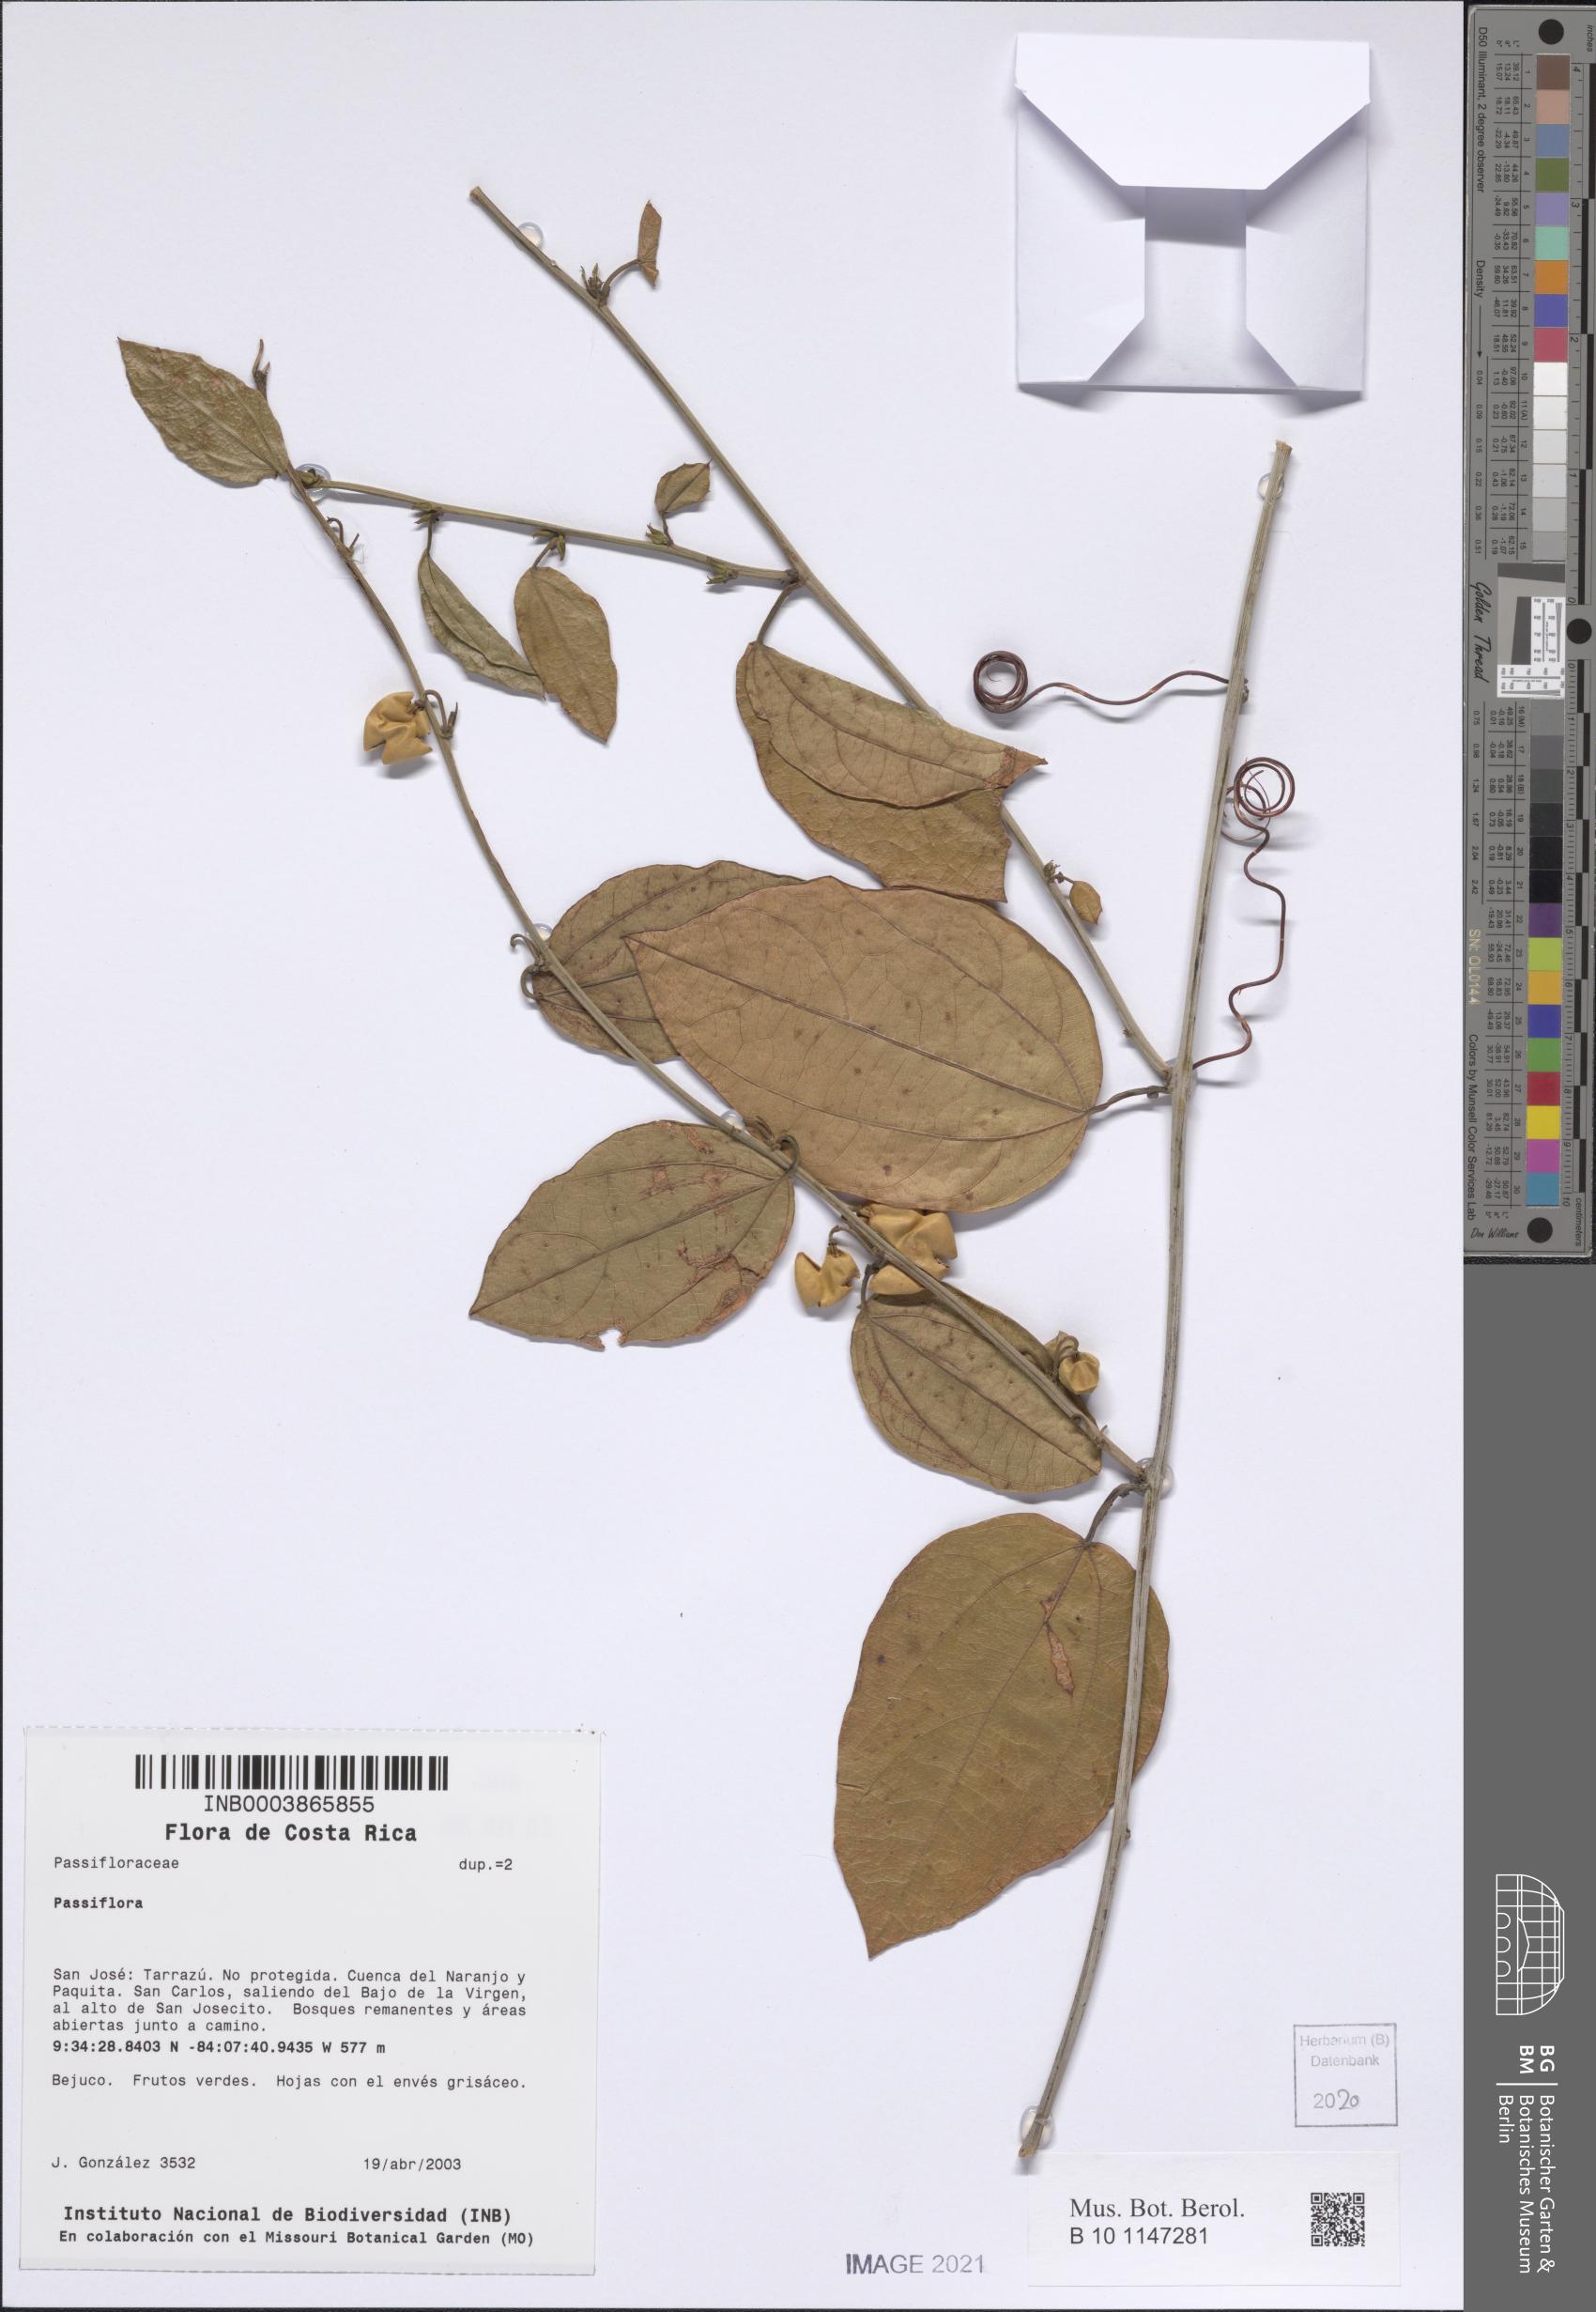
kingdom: Plantae
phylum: Tracheophyta
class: Magnoliopsida
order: Malpighiales
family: Passifloraceae
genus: Passiflora
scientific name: Passiflora
